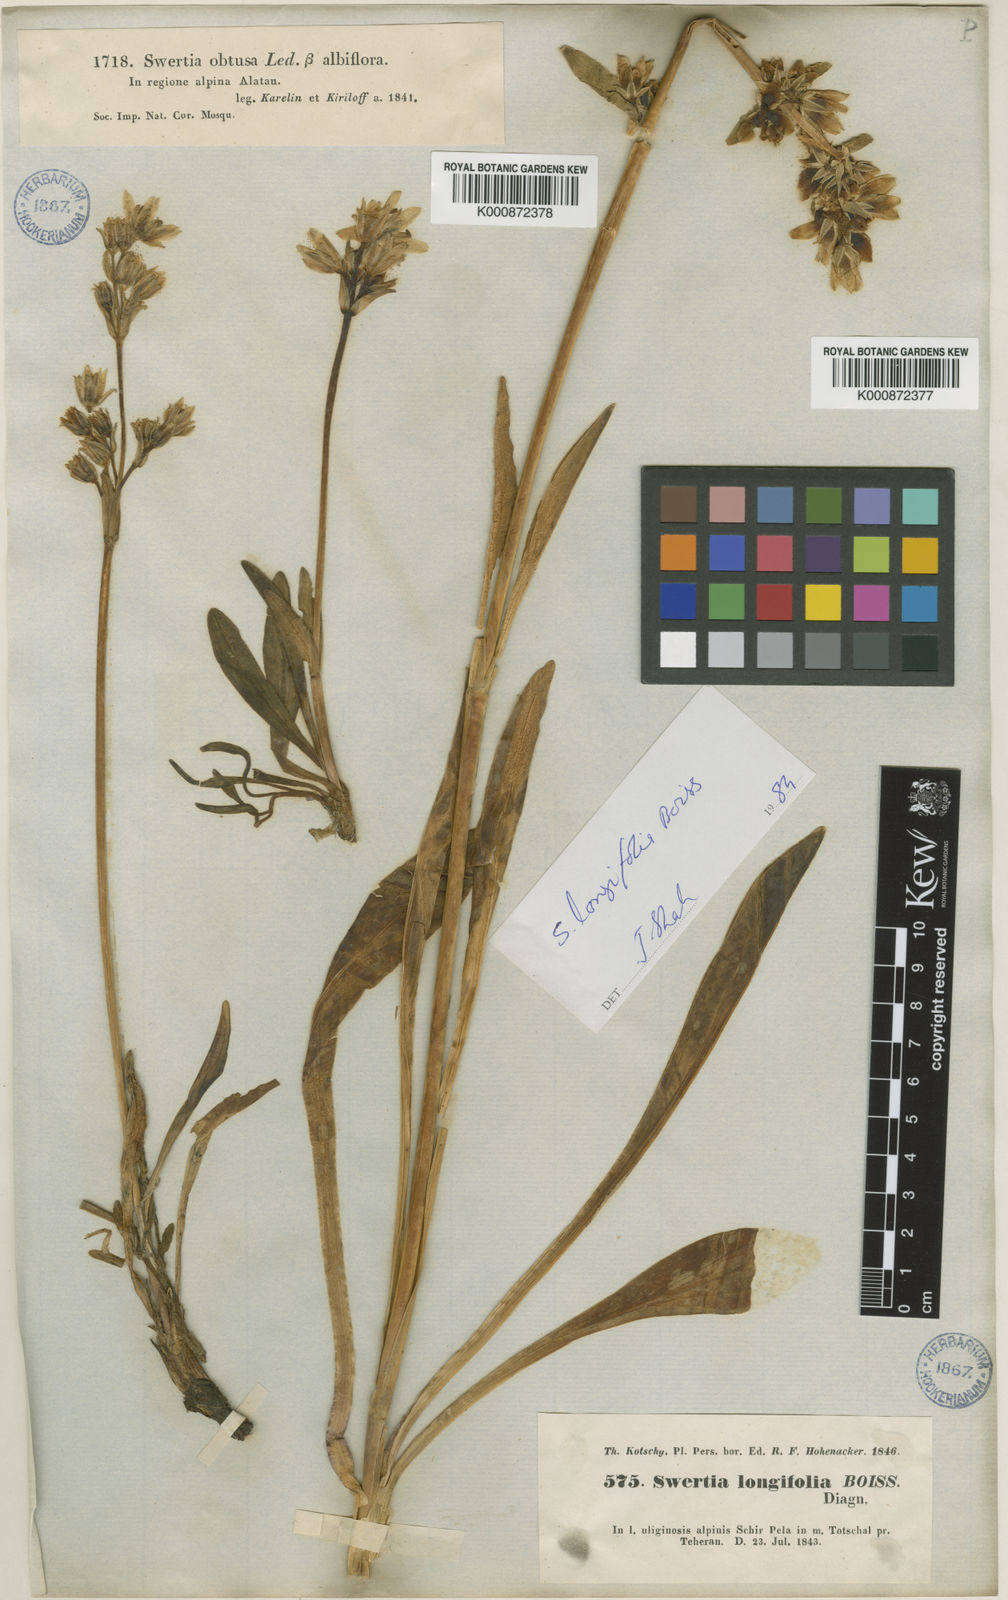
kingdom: Plantae
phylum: Tracheophyta
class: Magnoliopsida
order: Gentianales
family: Gentianaceae
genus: Swertia
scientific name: Swertia longifolia
